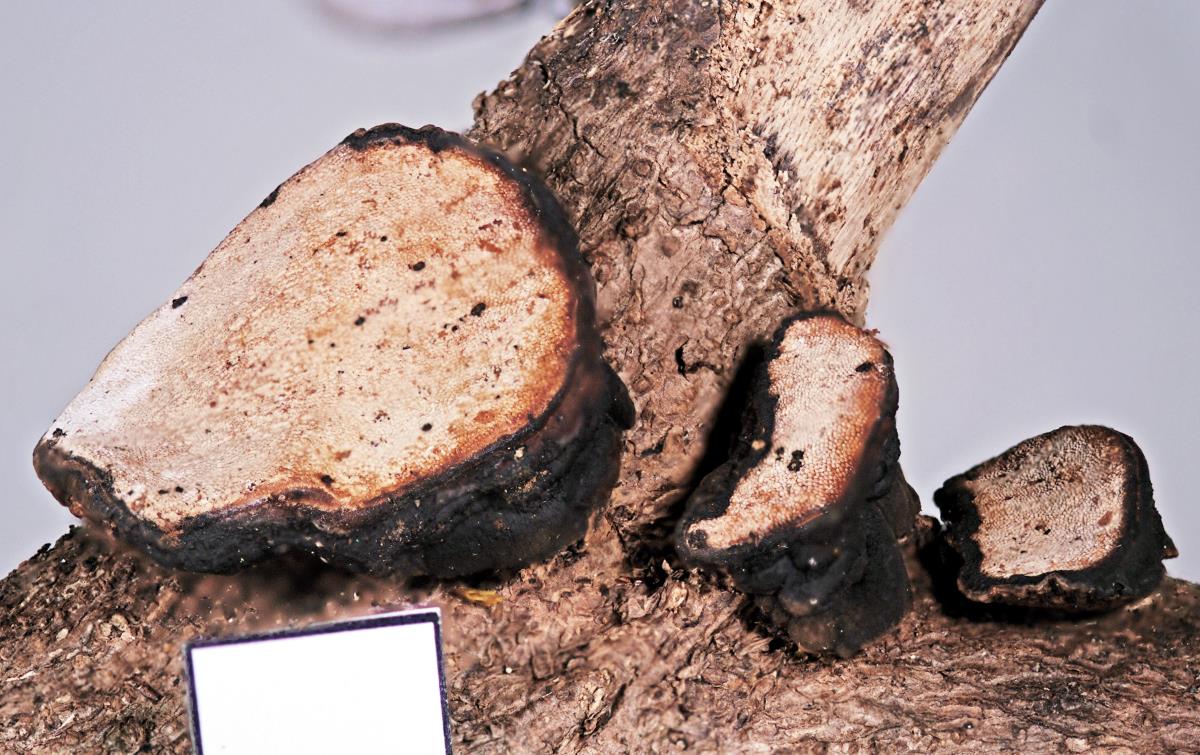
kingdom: Fungi
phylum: Basidiomycota
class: Agaricomycetes
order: Polyporales
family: Polyporaceae
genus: Cerioporus
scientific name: Cerioporus scutellatus
